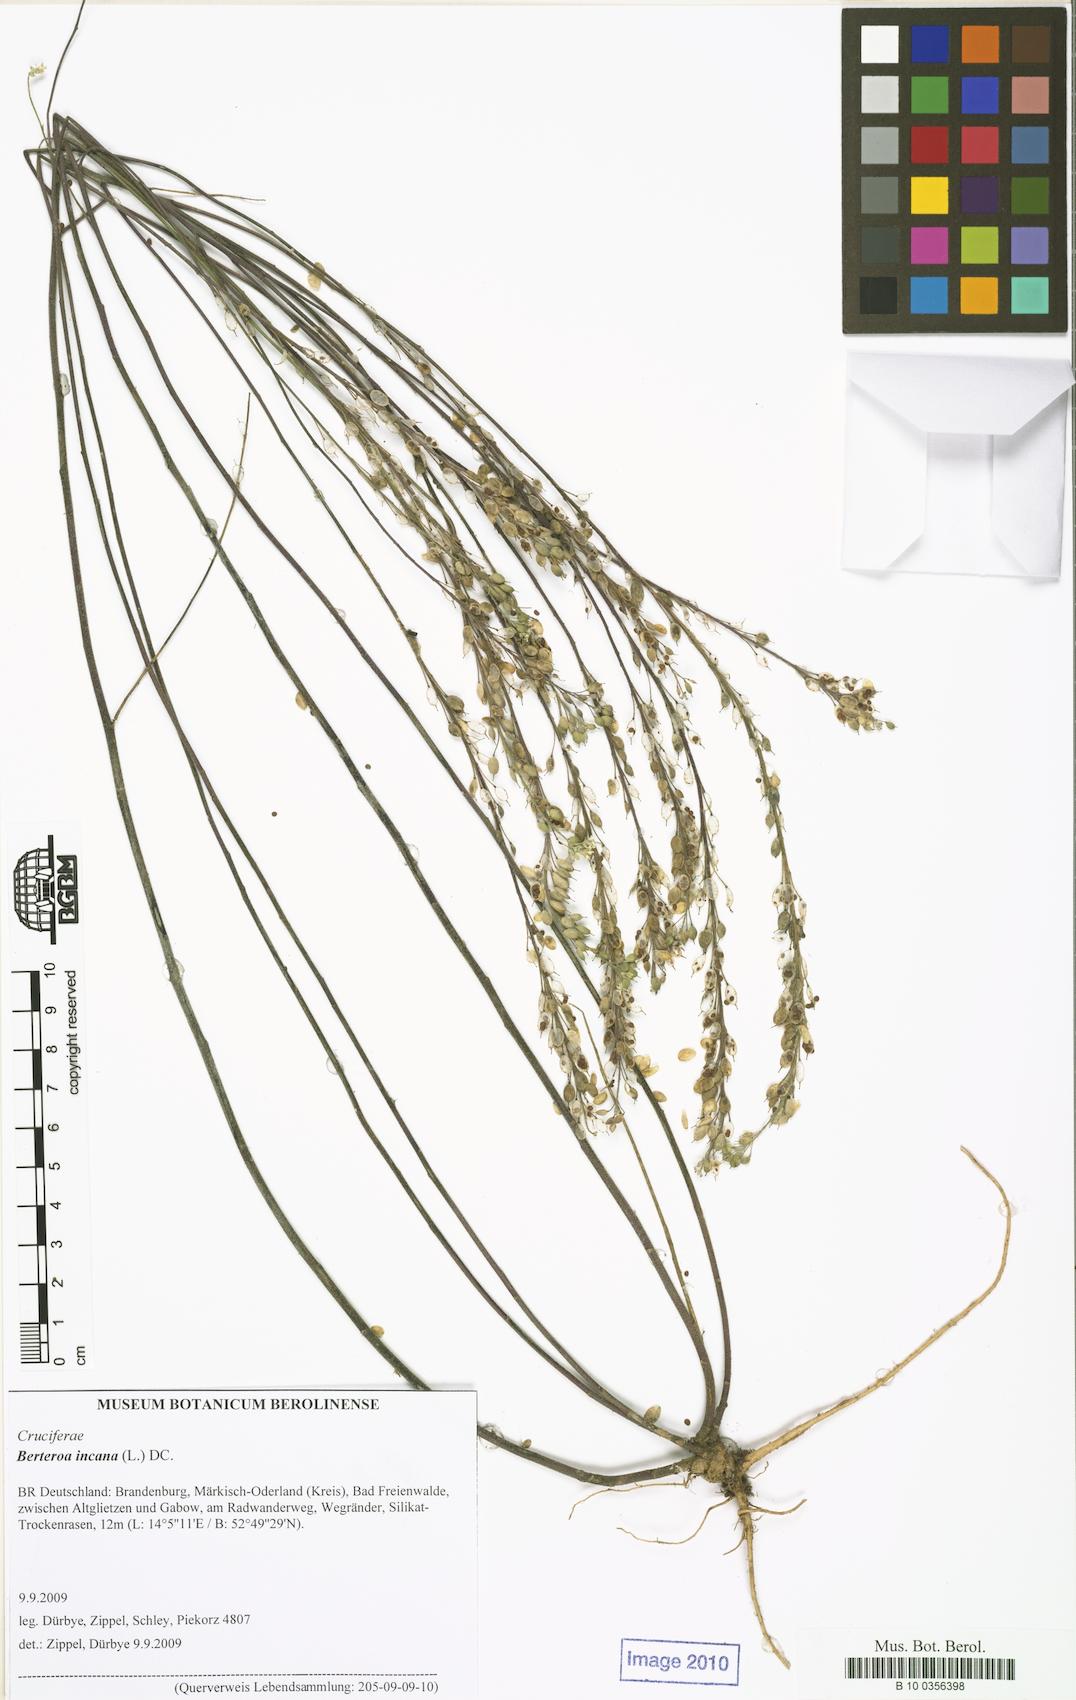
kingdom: Plantae
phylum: Tracheophyta
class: Magnoliopsida
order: Brassicales
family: Brassicaceae
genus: Berteroa
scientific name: Berteroa incana
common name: Hoary alison
